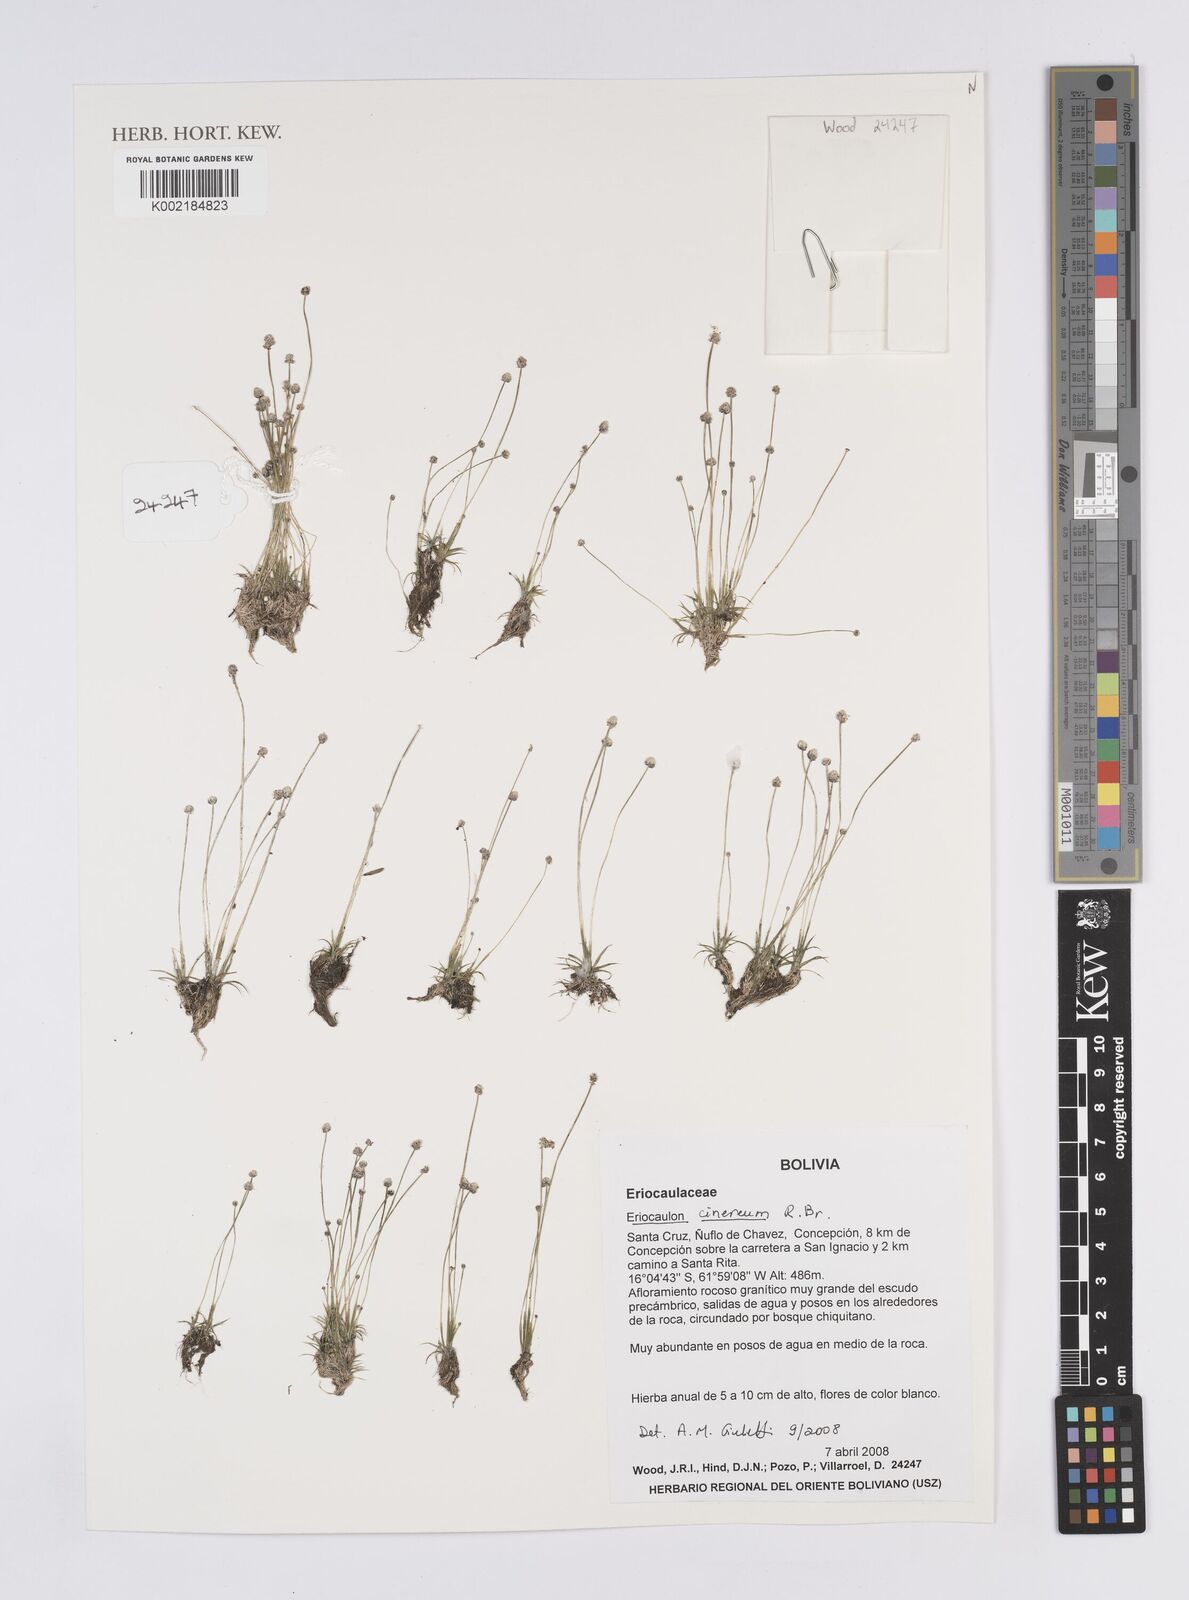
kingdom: Plantae
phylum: Tracheophyta
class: Liliopsida
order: Poales
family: Eriocaulaceae
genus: Eriocaulon
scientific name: Eriocaulon cinereum
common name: Ashy pipewort
